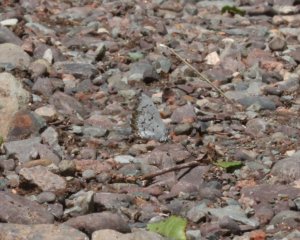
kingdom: Animalia
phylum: Arthropoda
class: Insecta
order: Lepidoptera
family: Lycaenidae
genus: Celastrina
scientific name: Celastrina lucia
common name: Northern Spring Azure
